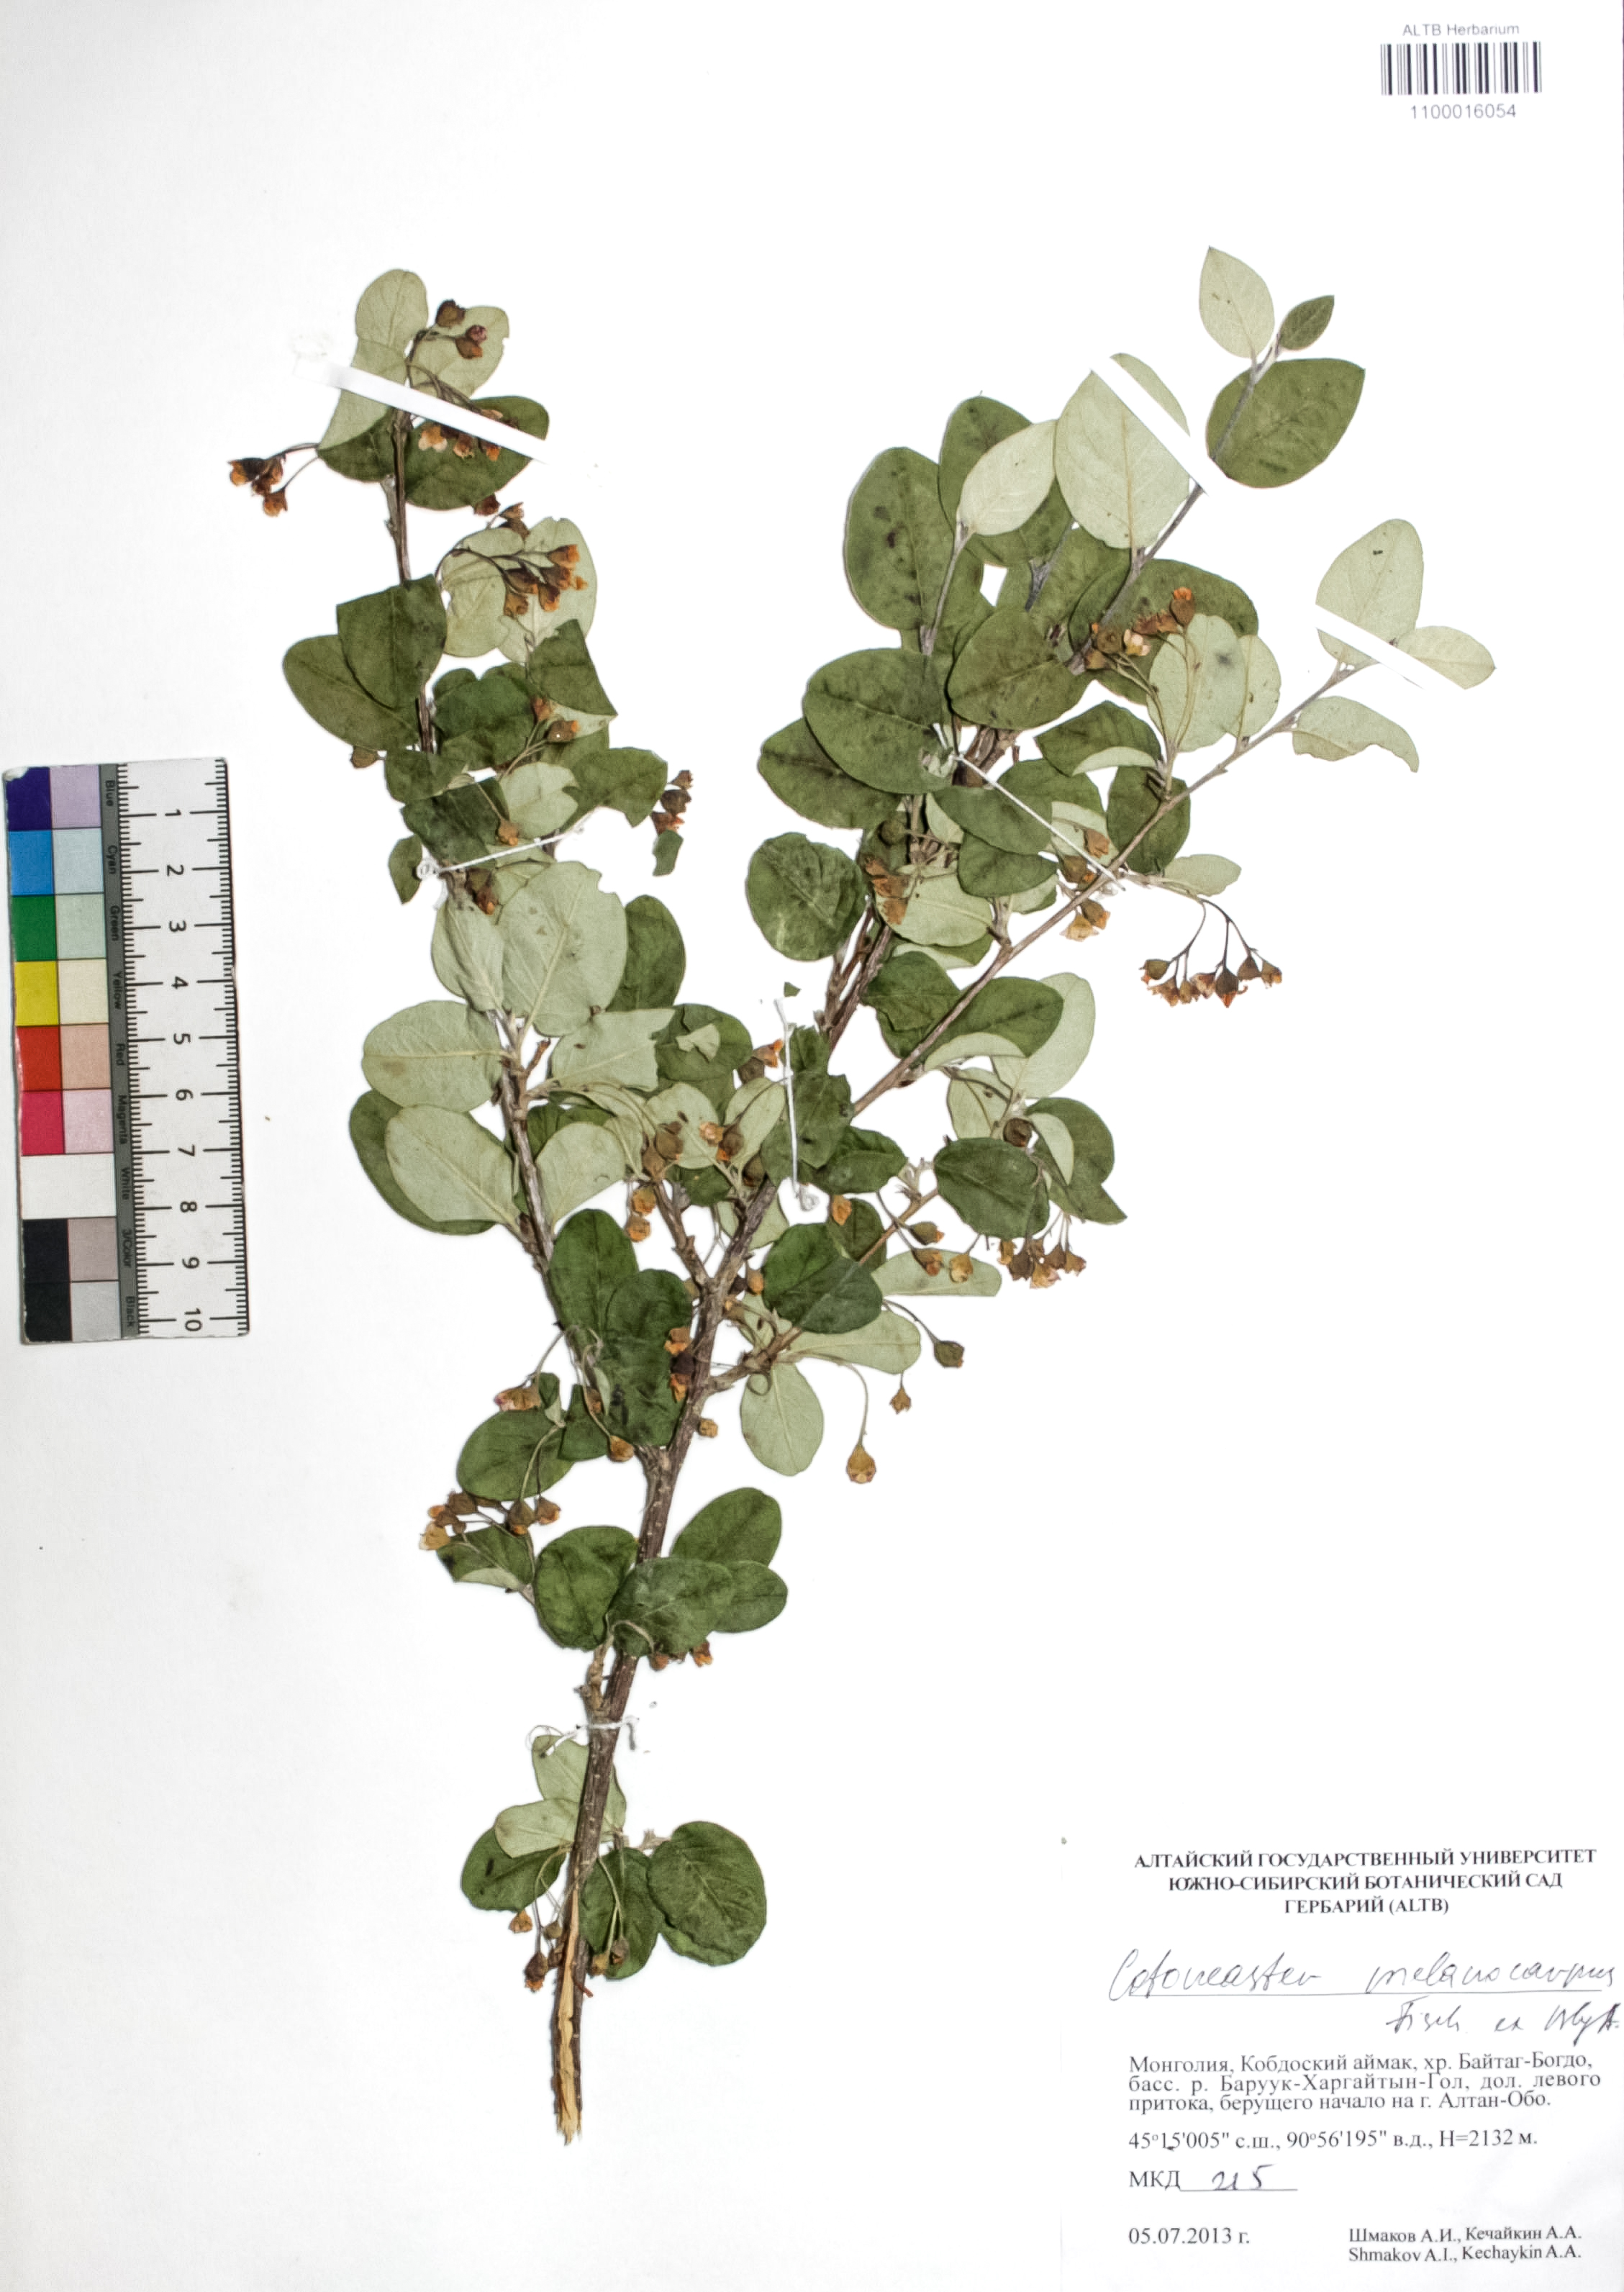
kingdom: Plantae
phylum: Tracheophyta
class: Magnoliopsida
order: Rosales
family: Rosaceae
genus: Cotoneaster
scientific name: Cotoneaster niger
